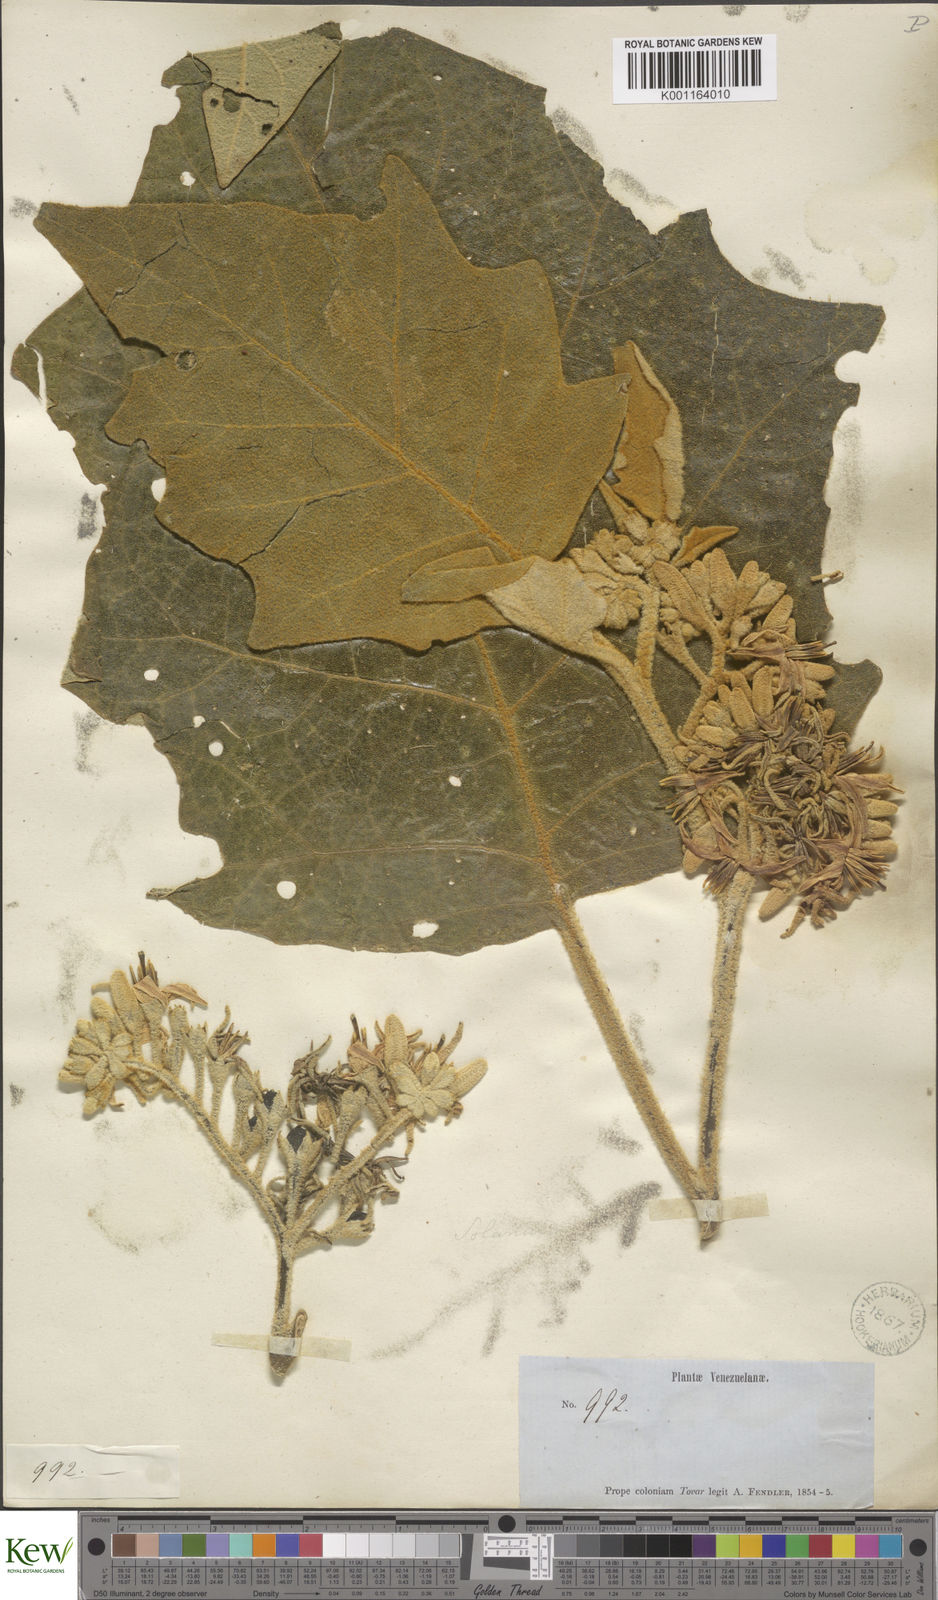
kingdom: Plantae
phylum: Tracheophyta
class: Magnoliopsida
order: Solanales
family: Solanaceae
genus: Solanum
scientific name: Solanum grandiflorum
